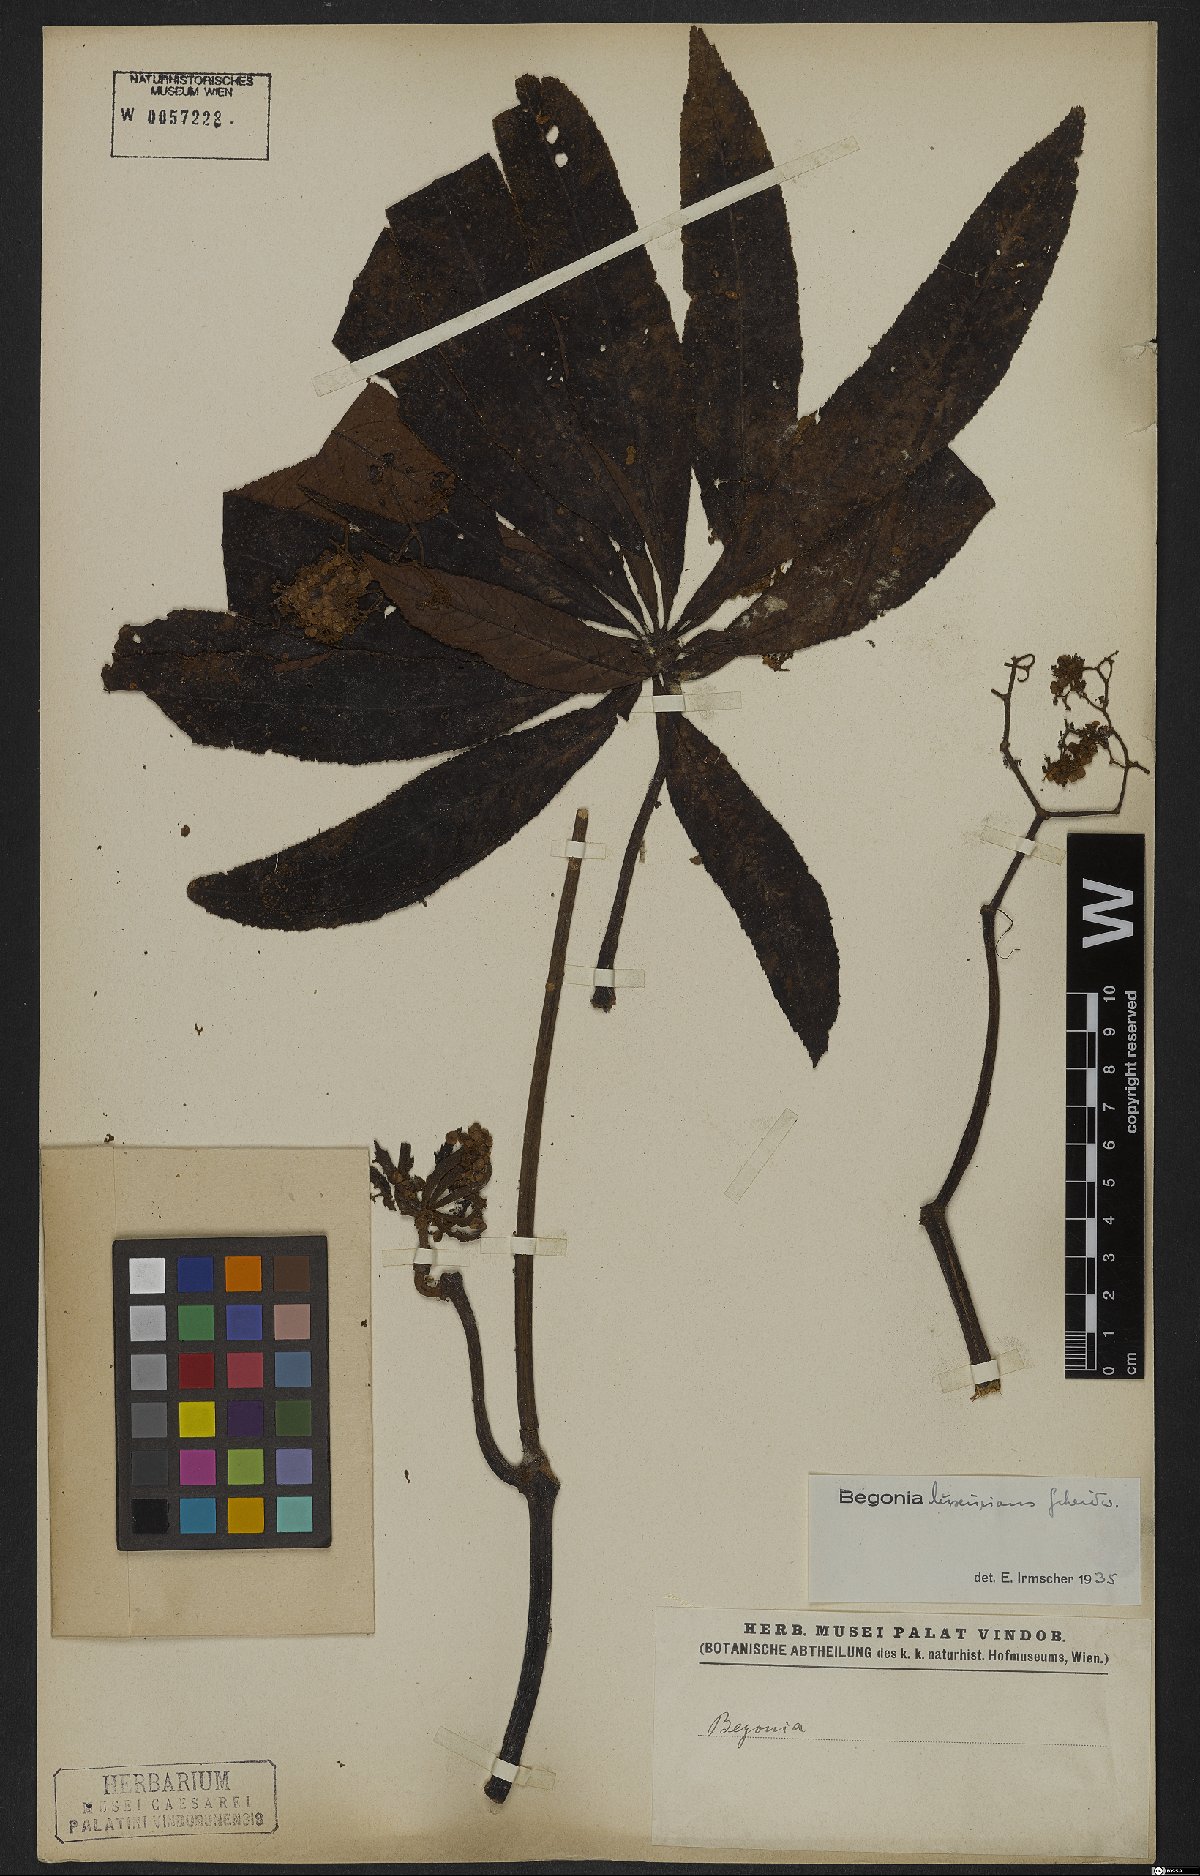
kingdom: Plantae
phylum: Tracheophyta
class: Magnoliopsida
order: Cucurbitales
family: Begoniaceae
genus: Begonia
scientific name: Begonia luxurians
